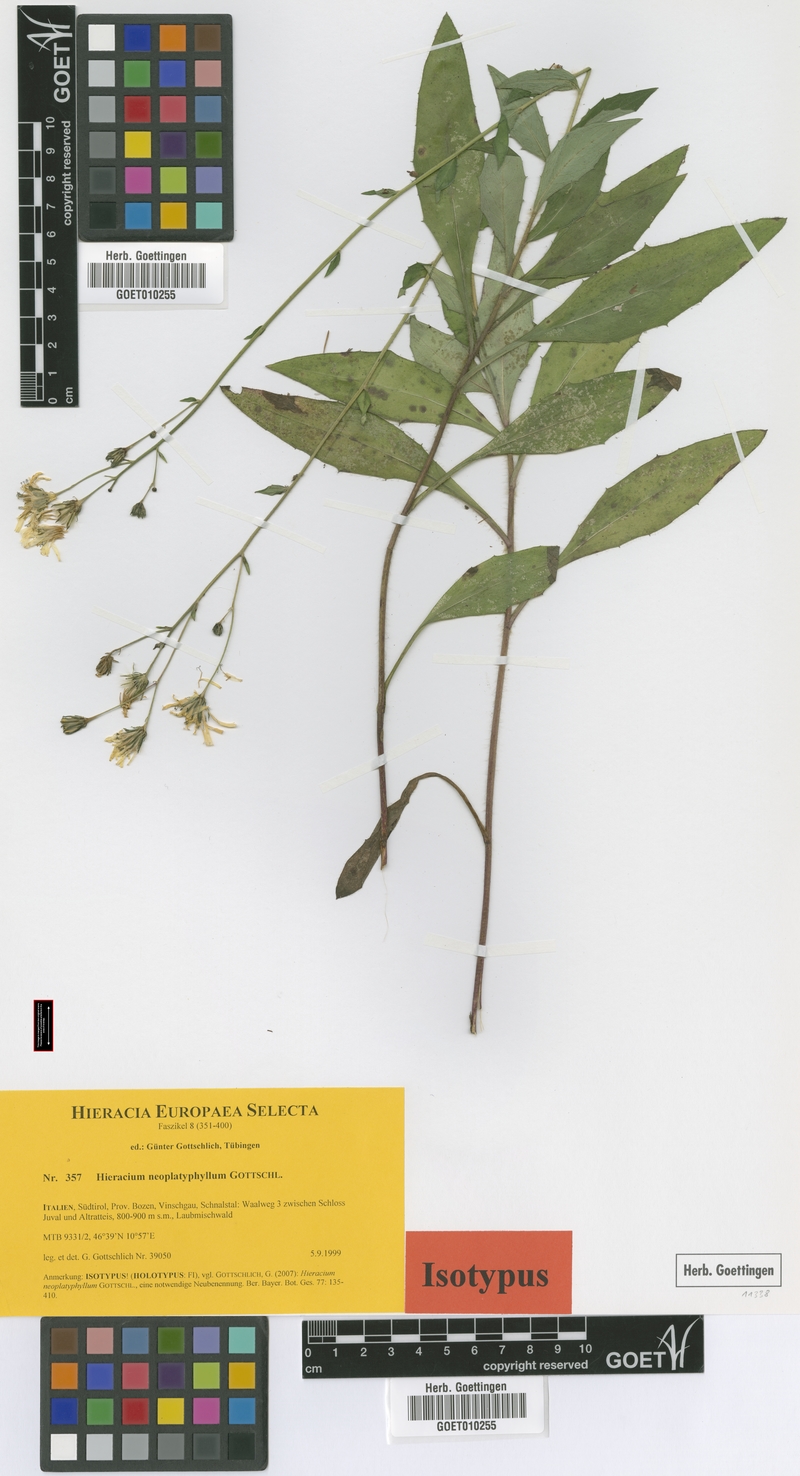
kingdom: Plantae
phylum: Tracheophyta
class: Magnoliopsida
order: Asterales
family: Asteraceae
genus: Hieracium
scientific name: Hieracium neoplatyphyllum
